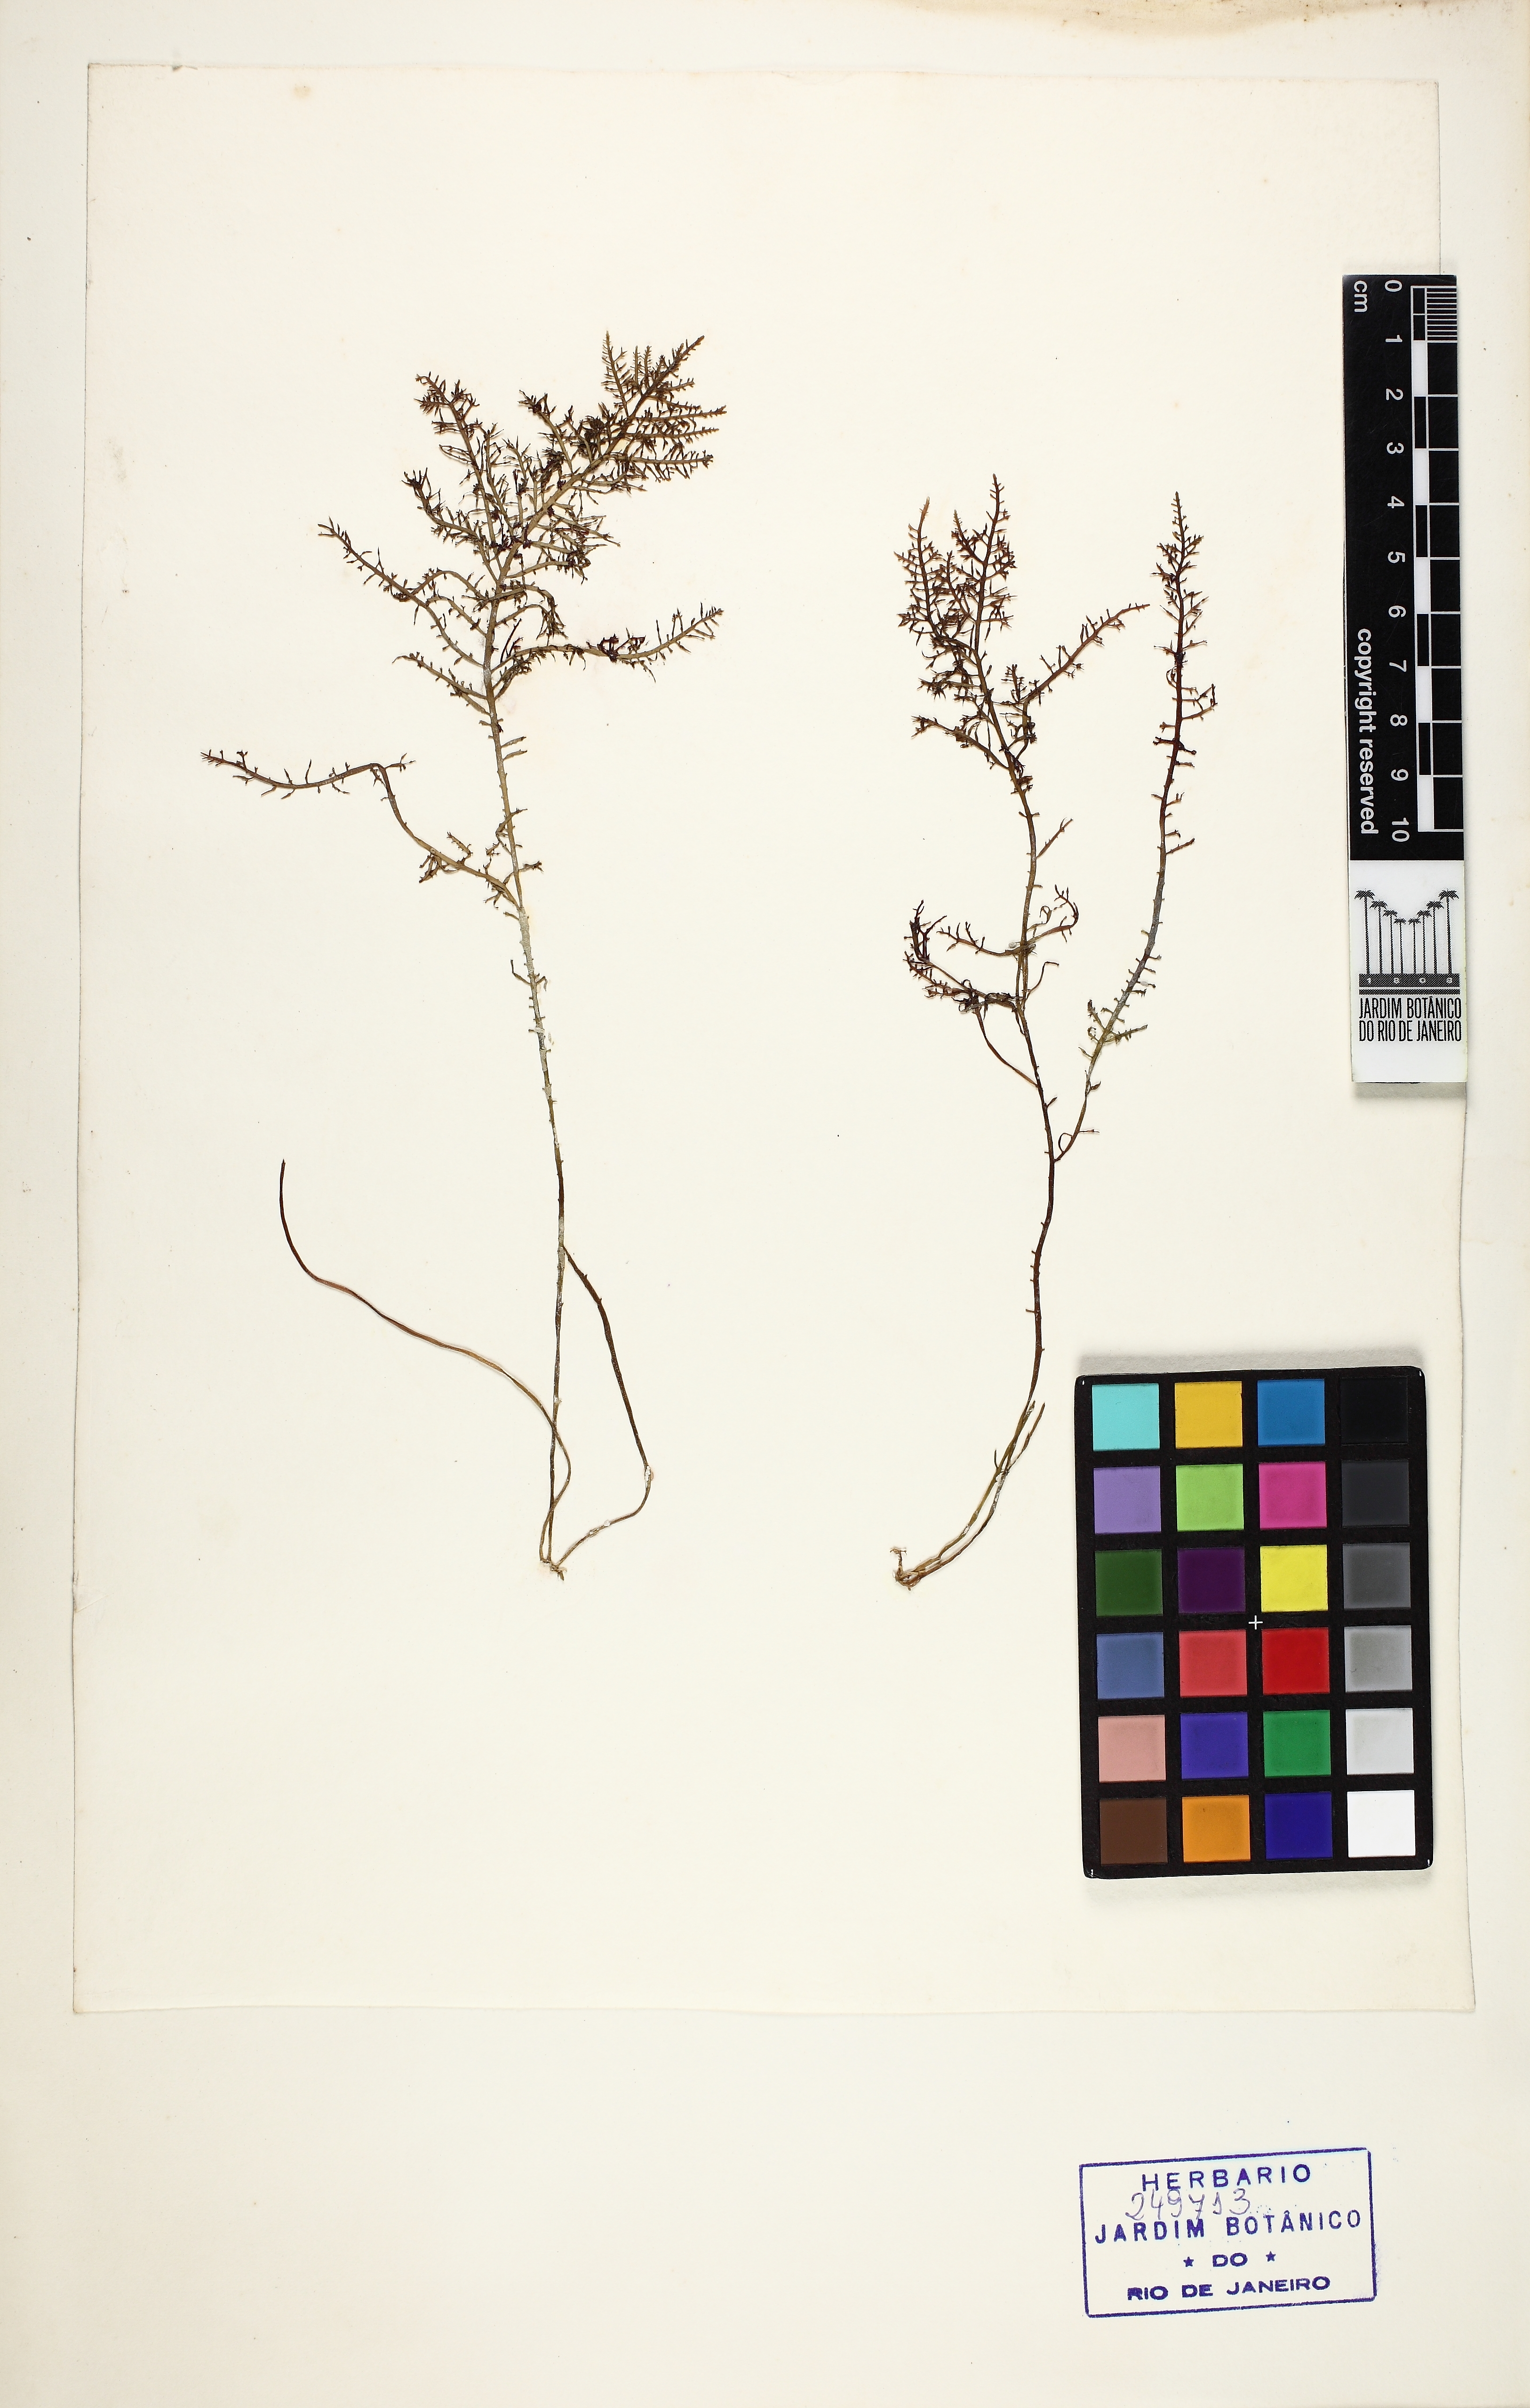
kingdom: Plantae
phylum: Rhodophyta
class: Florideophyceae
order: Gelidiales
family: Pterocladiaceae
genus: Pterocladiella
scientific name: Pterocladiella capillacea
